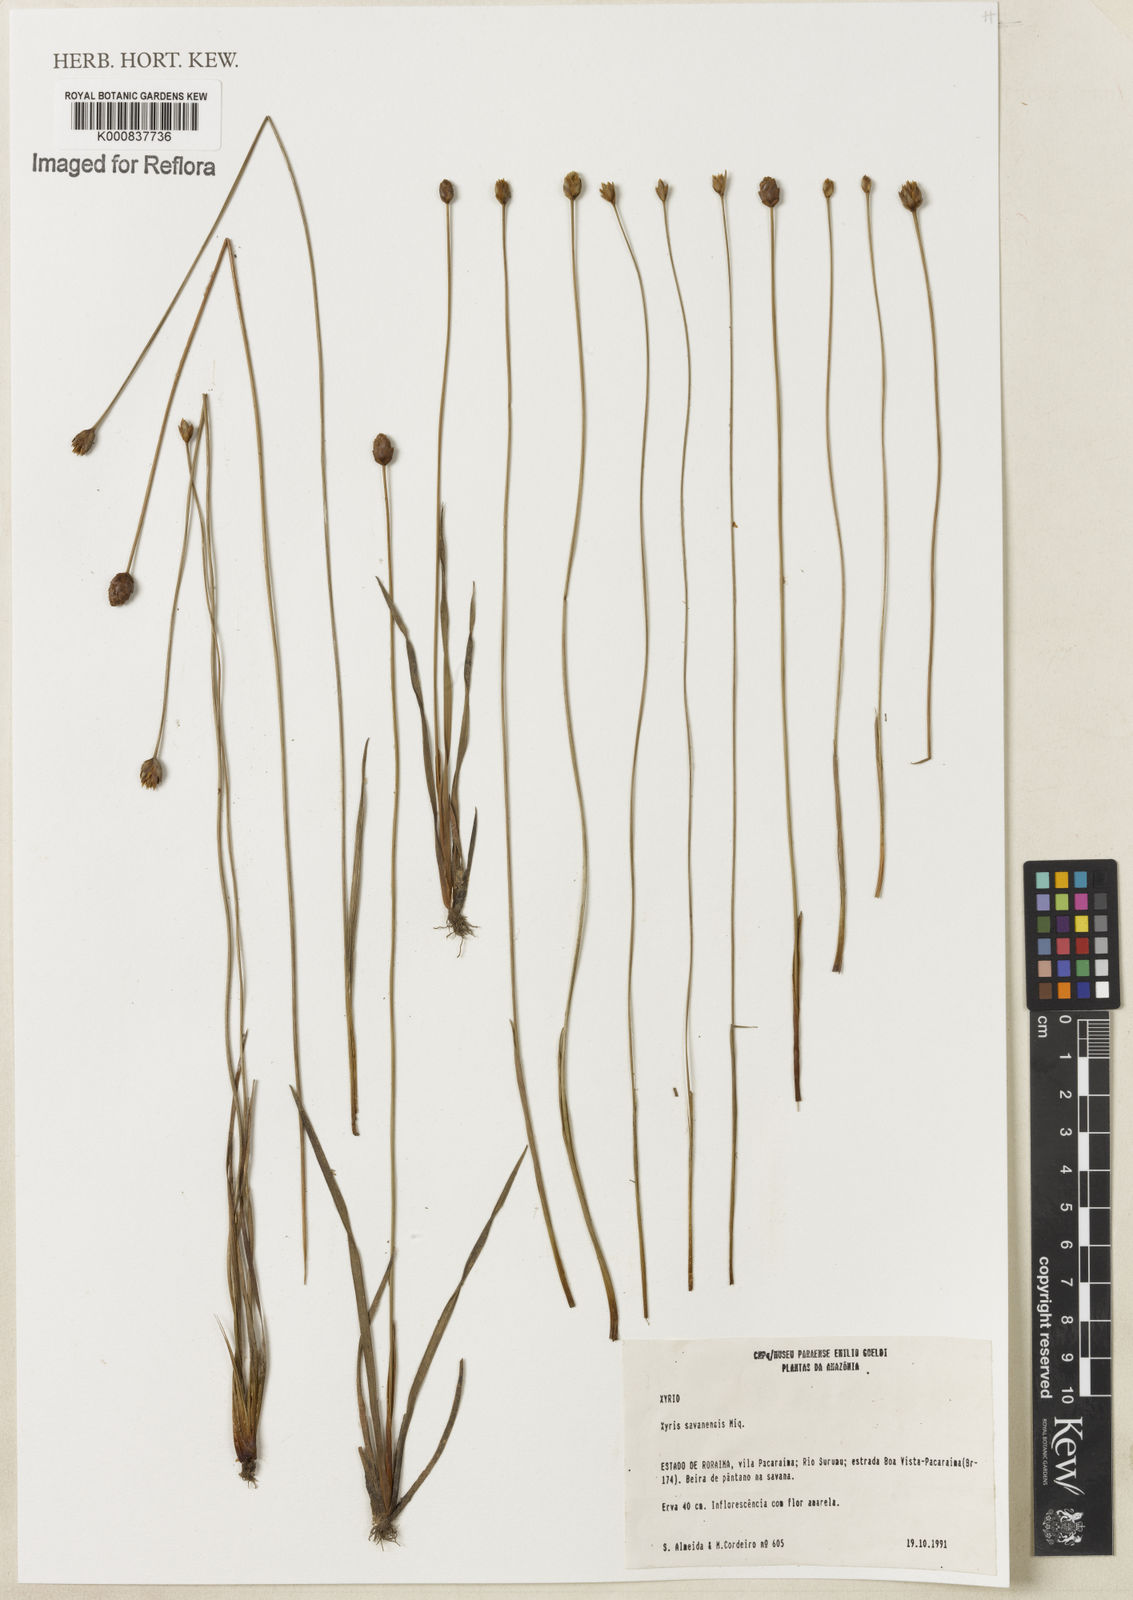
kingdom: Plantae
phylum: Tracheophyta
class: Liliopsida
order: Poales
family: Xyridaceae
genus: Xyris
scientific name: Xyris savanensis
